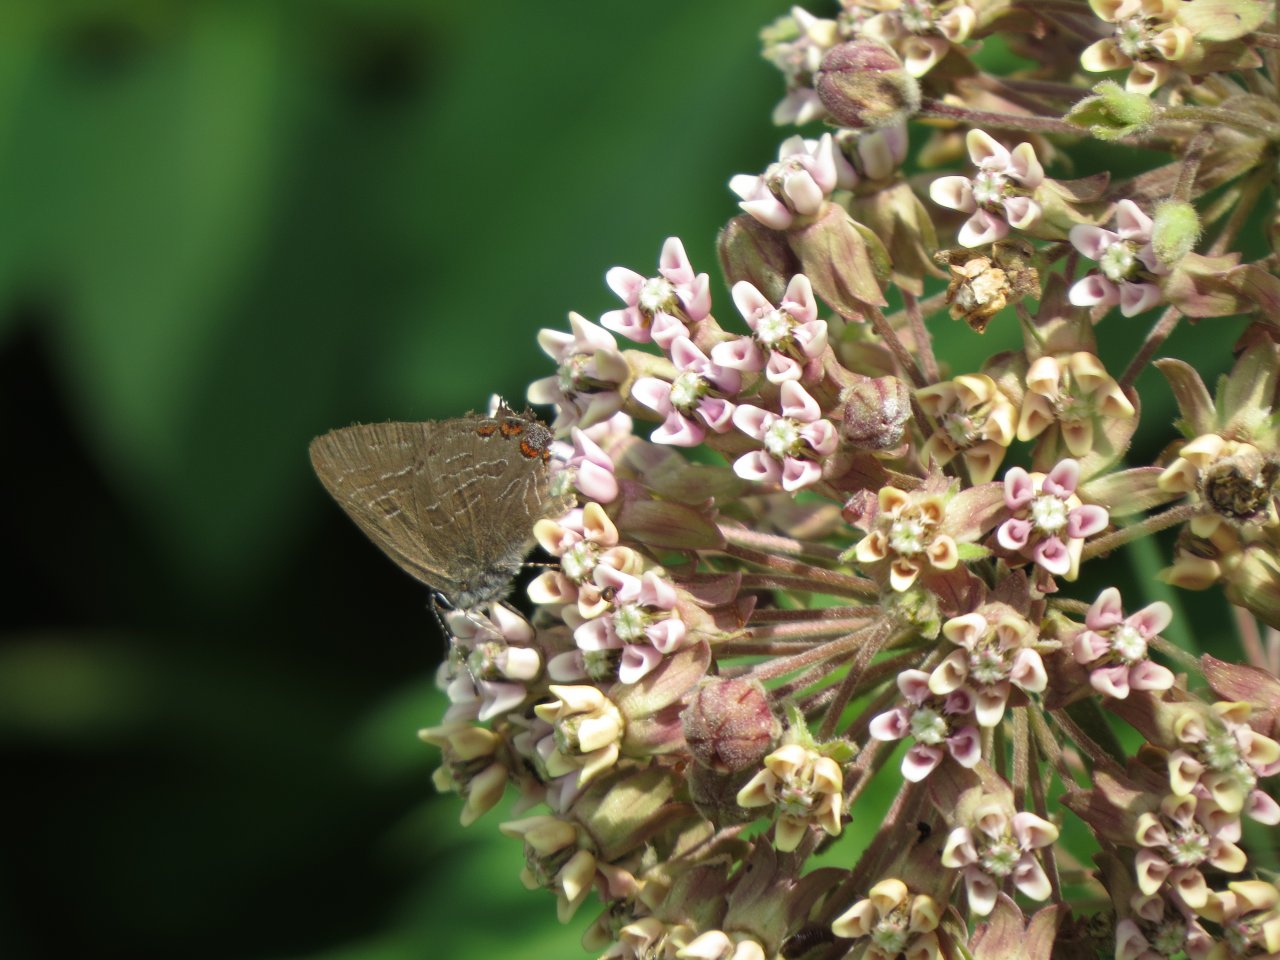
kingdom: Animalia
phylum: Arthropoda
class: Insecta
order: Lepidoptera
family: Lycaenidae
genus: Satyrium
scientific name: Satyrium liparops
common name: Striped Hairstreak
